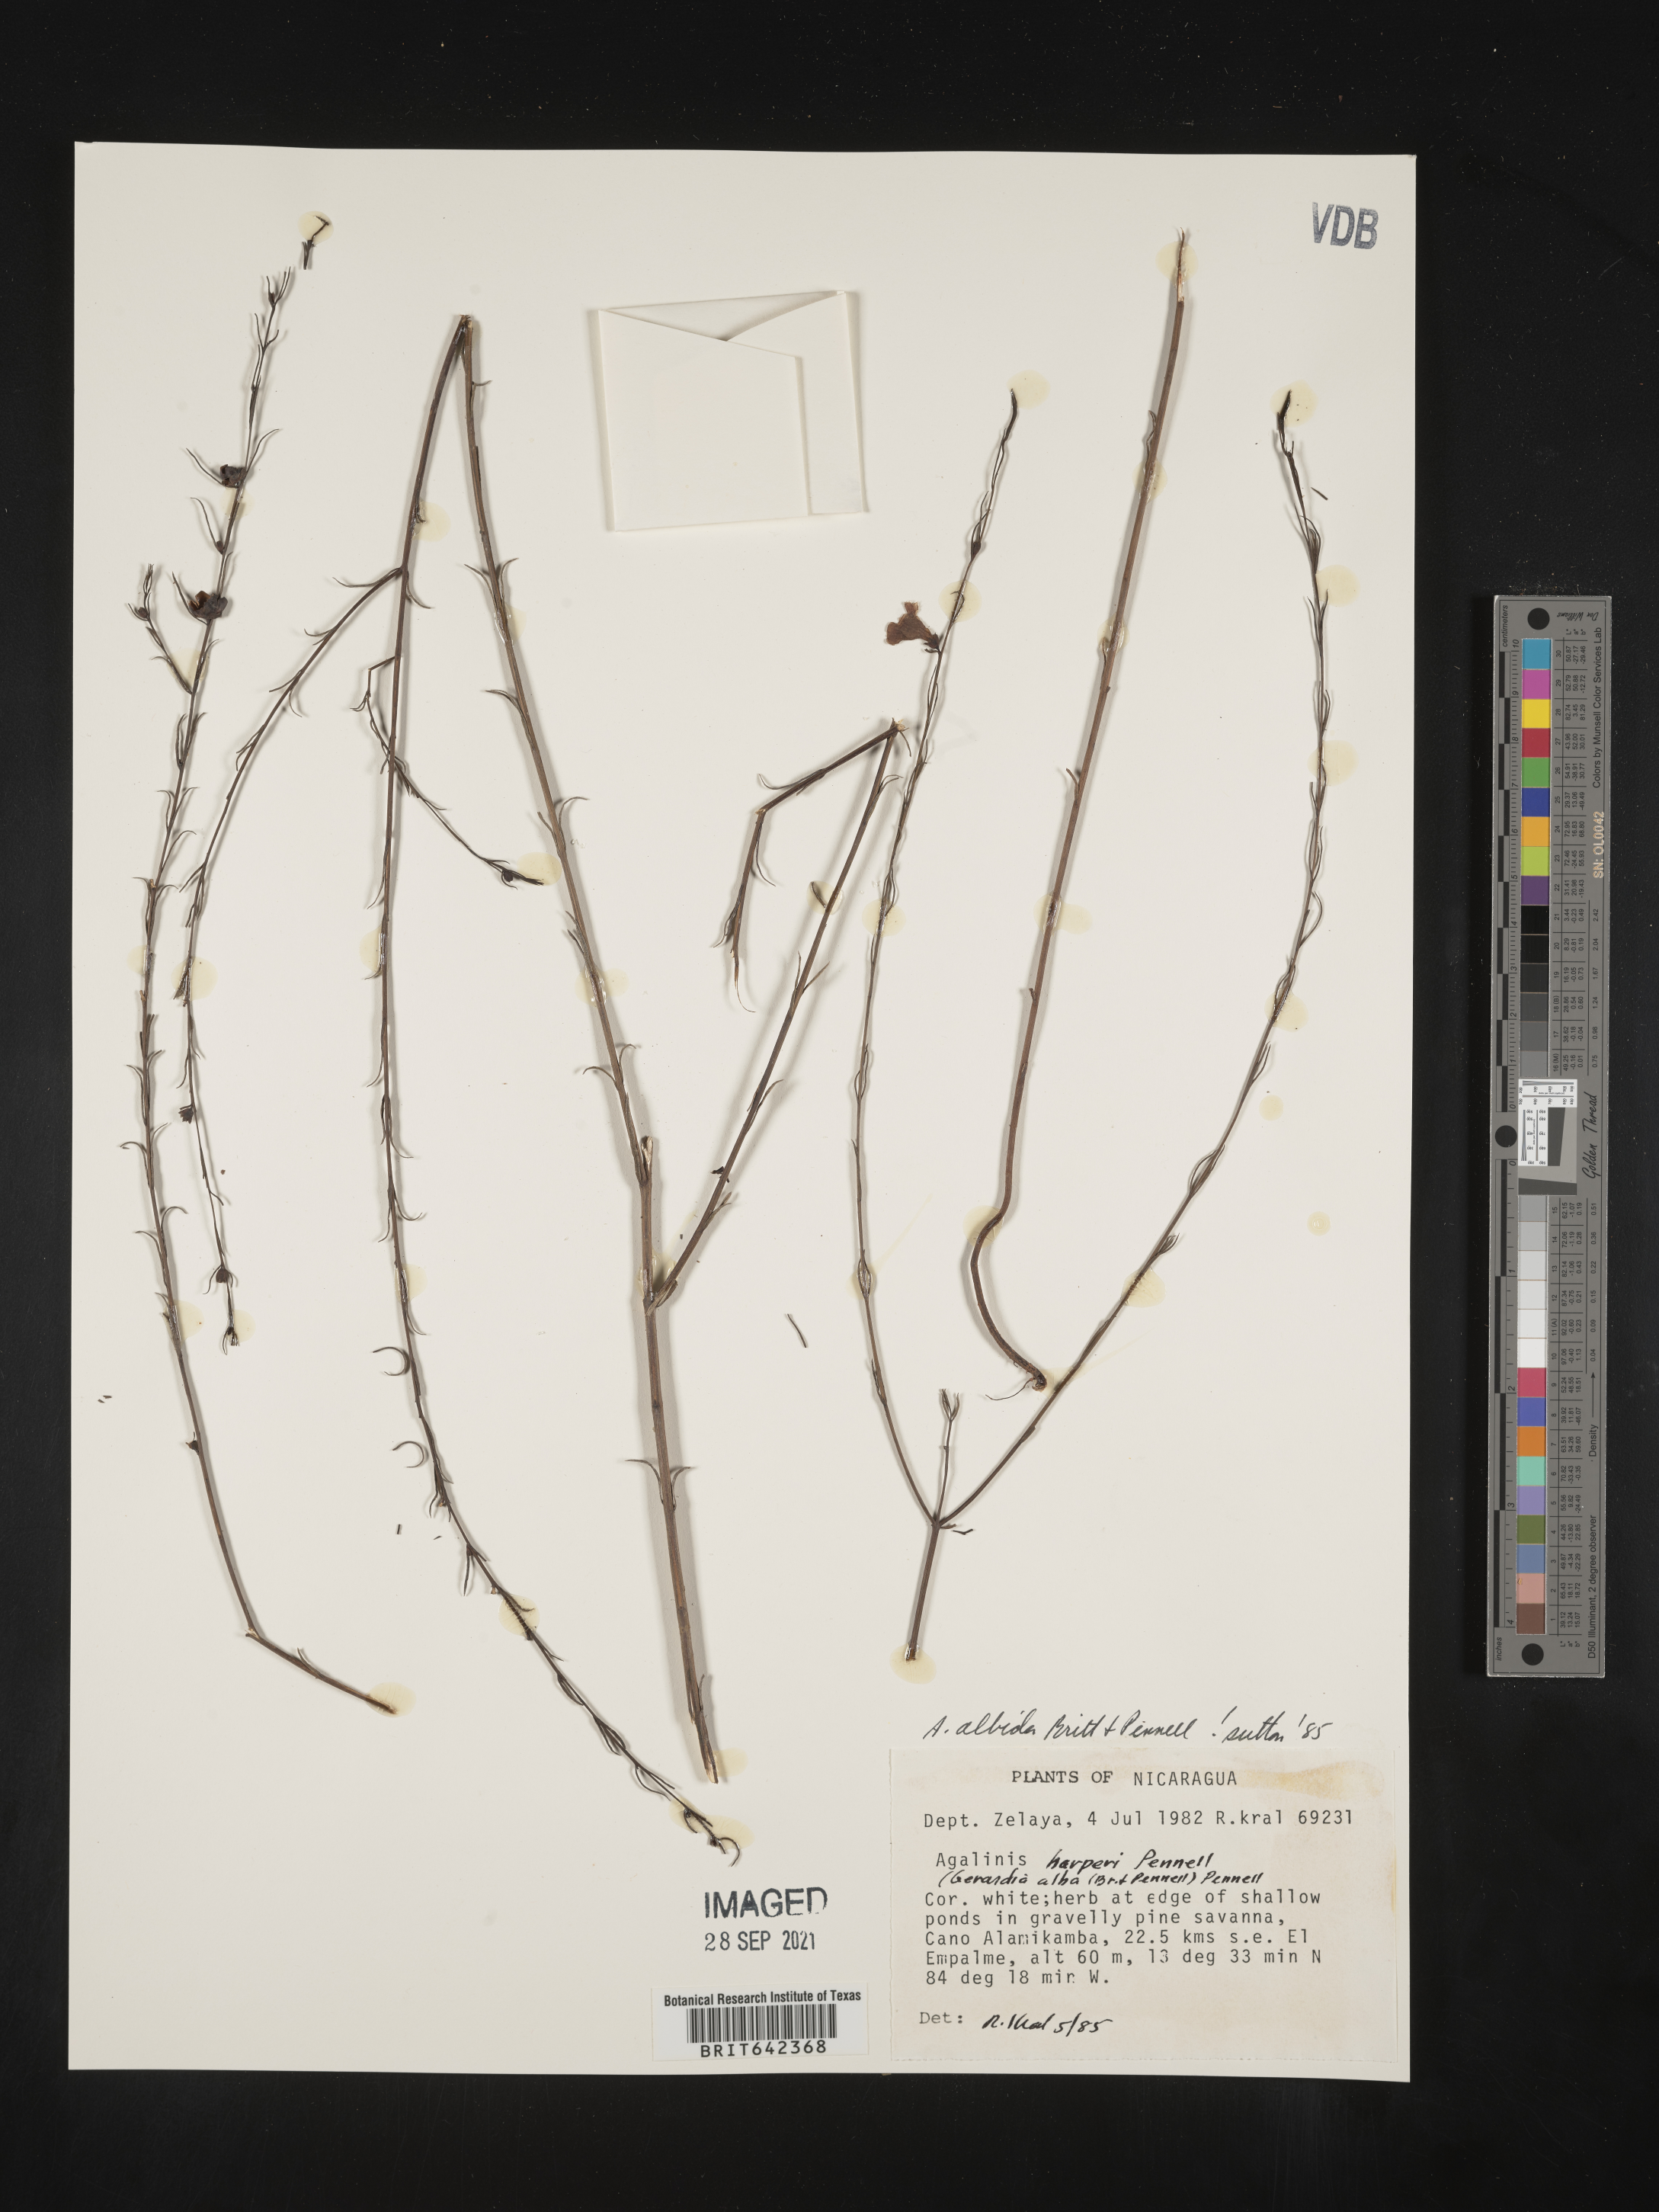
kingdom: Plantae
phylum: Tracheophyta
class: Magnoliopsida
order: Lamiales
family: Orobanchaceae
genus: Agalinis
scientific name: Agalinis
